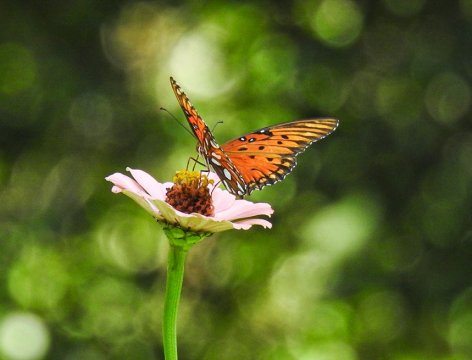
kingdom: Animalia
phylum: Arthropoda
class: Insecta
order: Lepidoptera
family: Nymphalidae
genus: Dione
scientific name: Dione vanillae
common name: Gulf Fritillary
